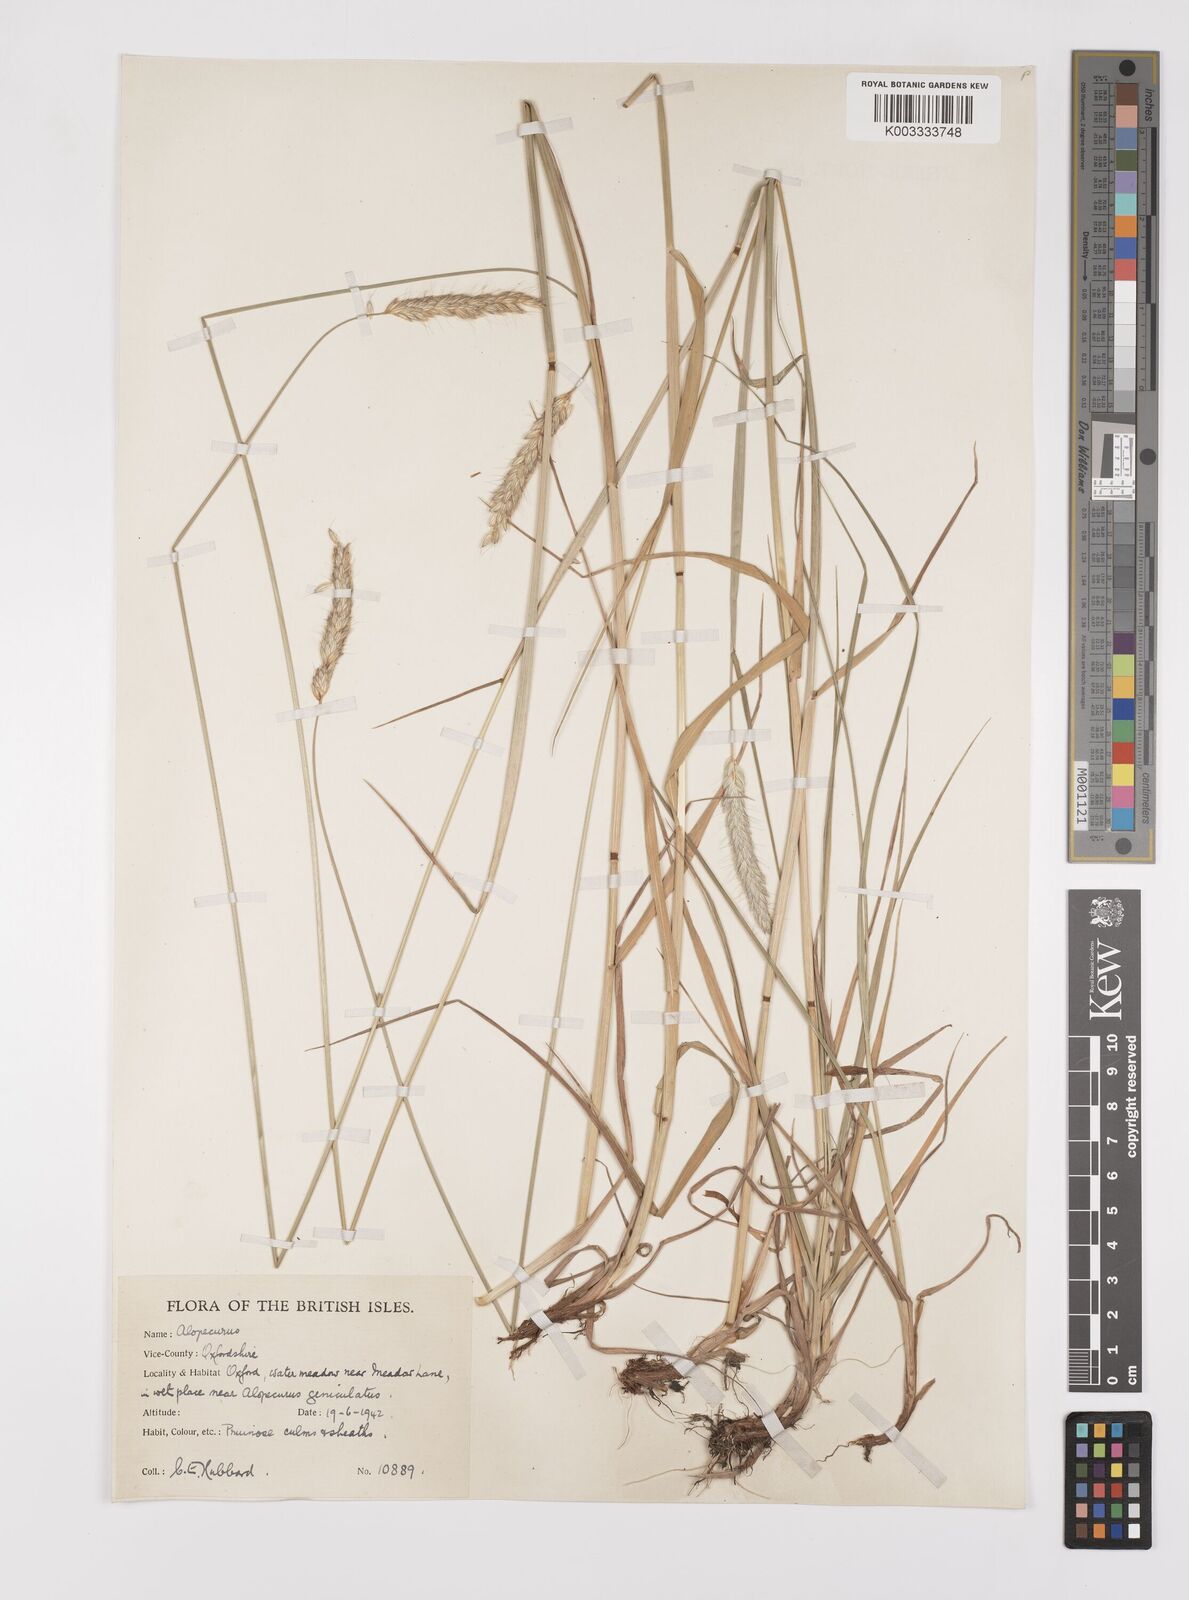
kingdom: Plantae
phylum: Tracheophyta
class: Liliopsida
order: Poales
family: Poaceae
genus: Alopecurus
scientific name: Alopecurus pratensis
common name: Meadow foxtail
